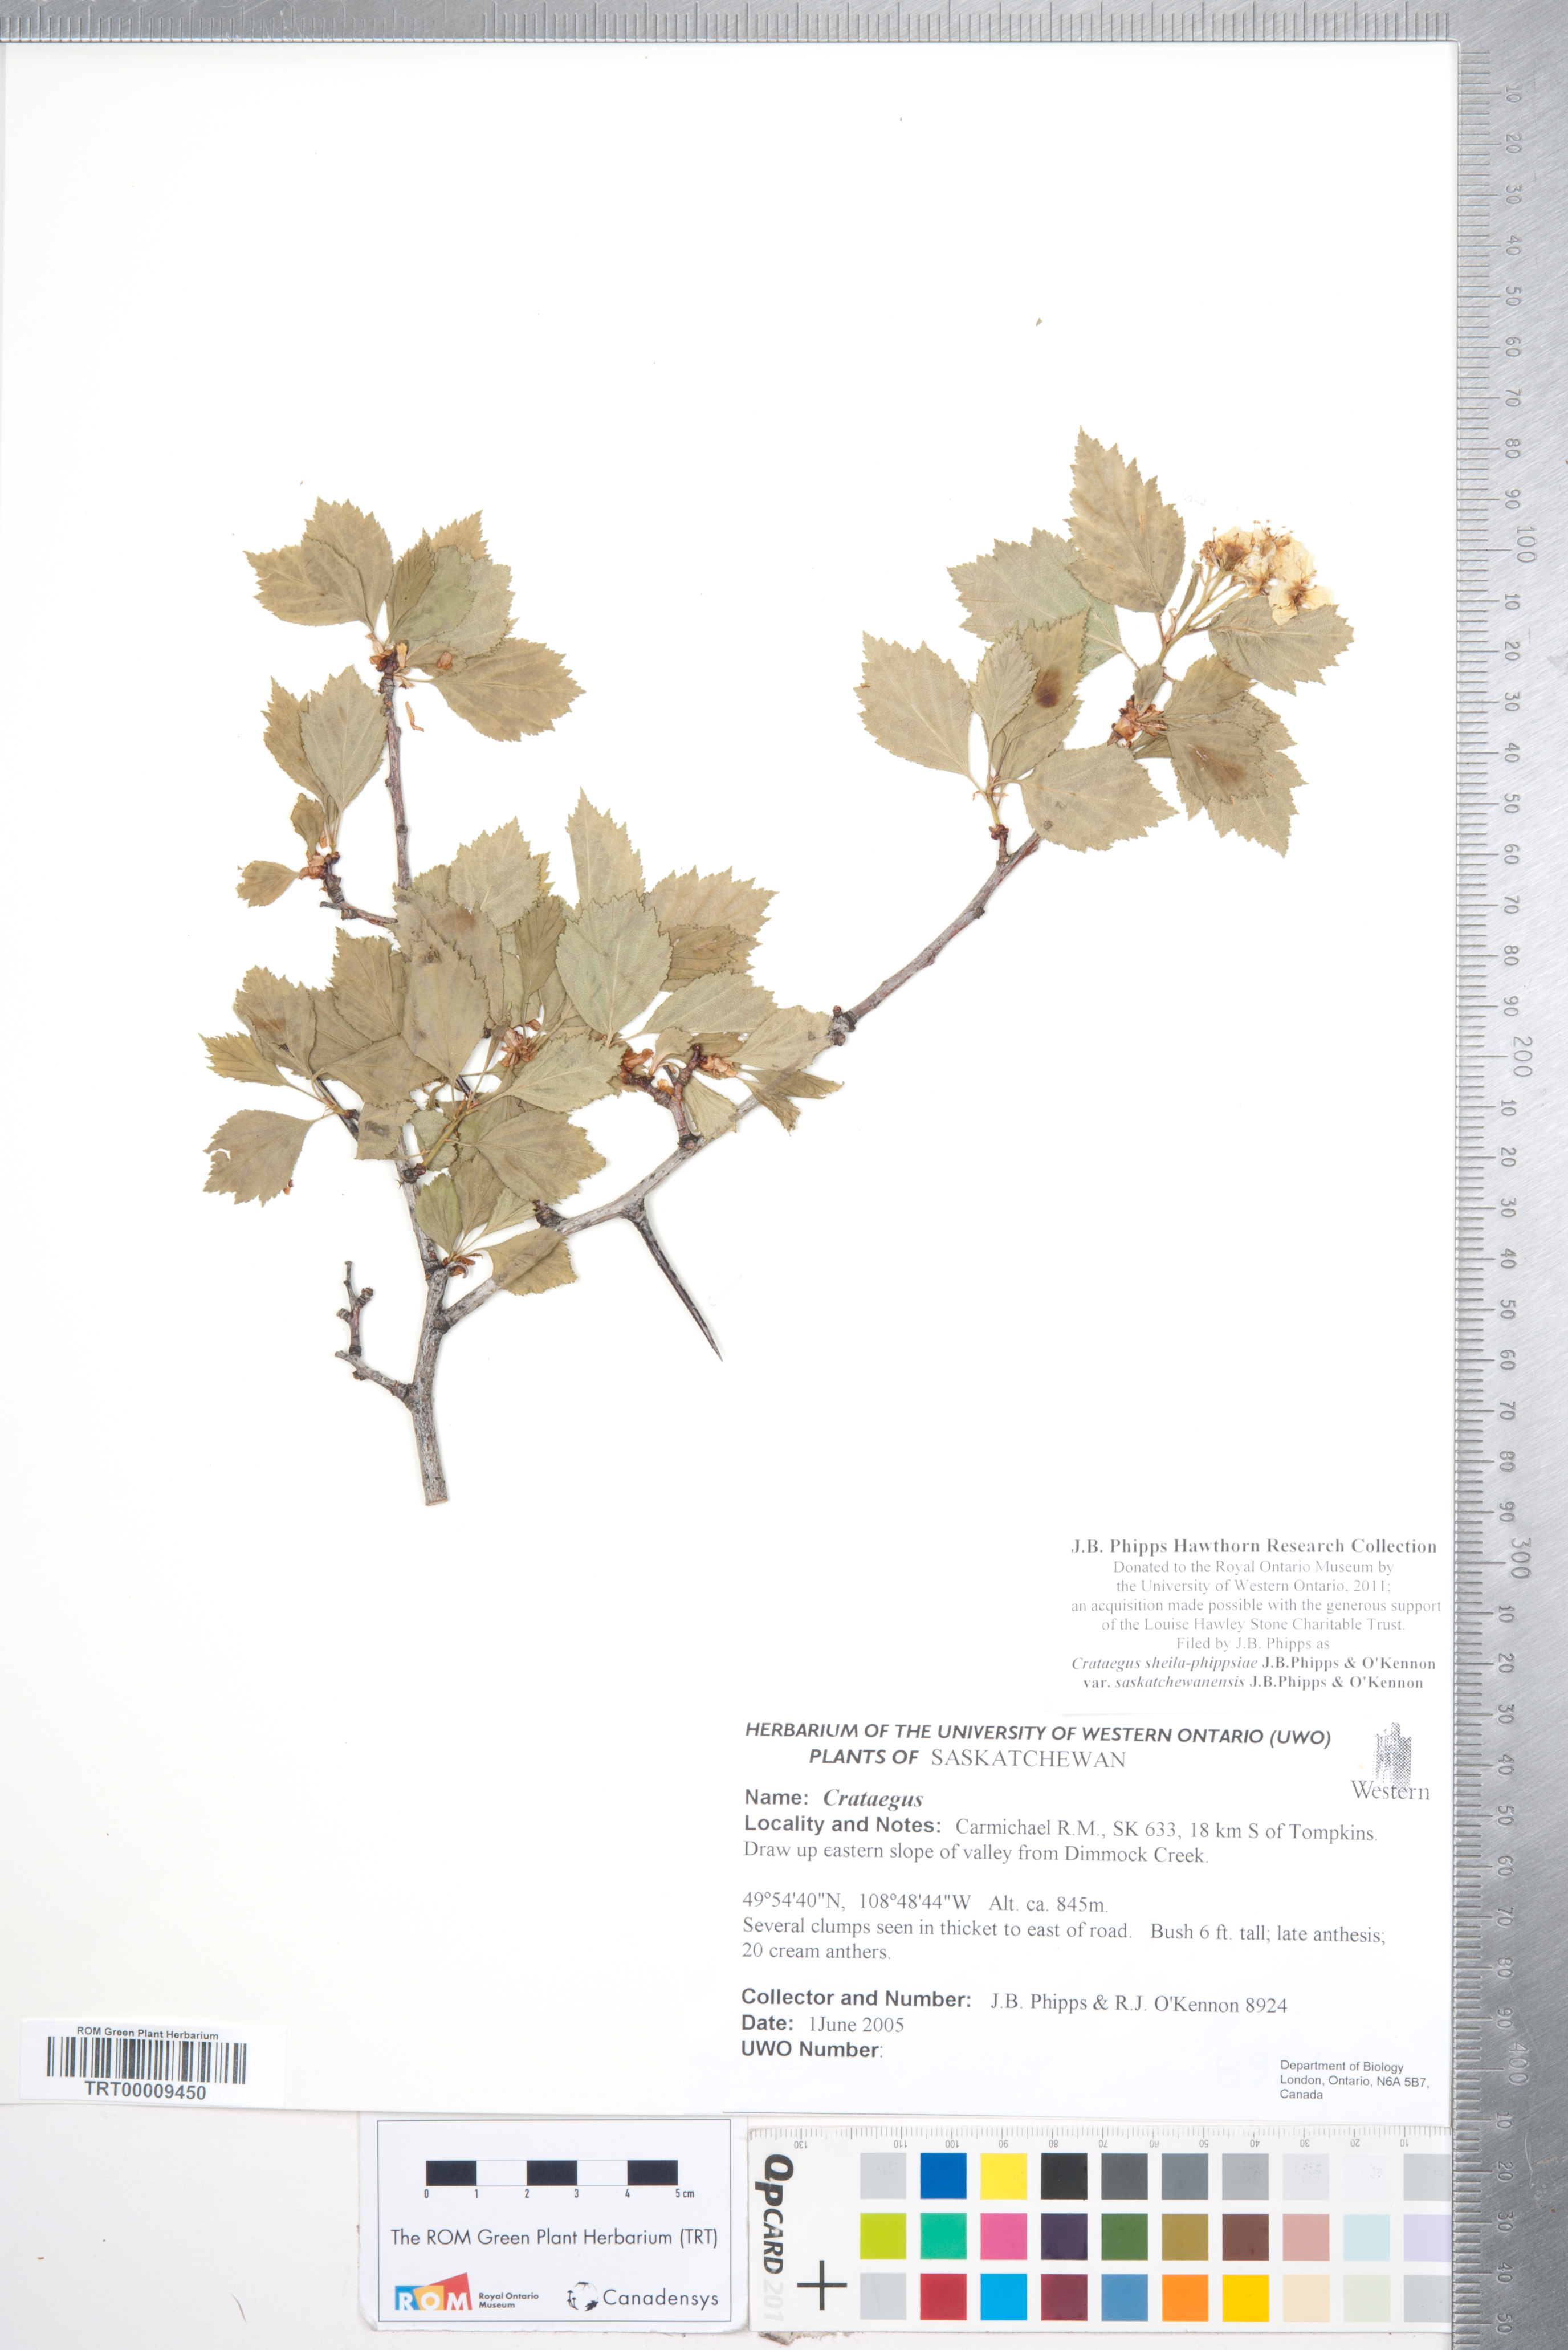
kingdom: Plantae
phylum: Tracheophyta
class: Magnoliopsida
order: Rosales
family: Rosaceae
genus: Crataegus
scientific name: Crataegus sheila-phippsiae
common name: Sheila phipps' hawthorn
